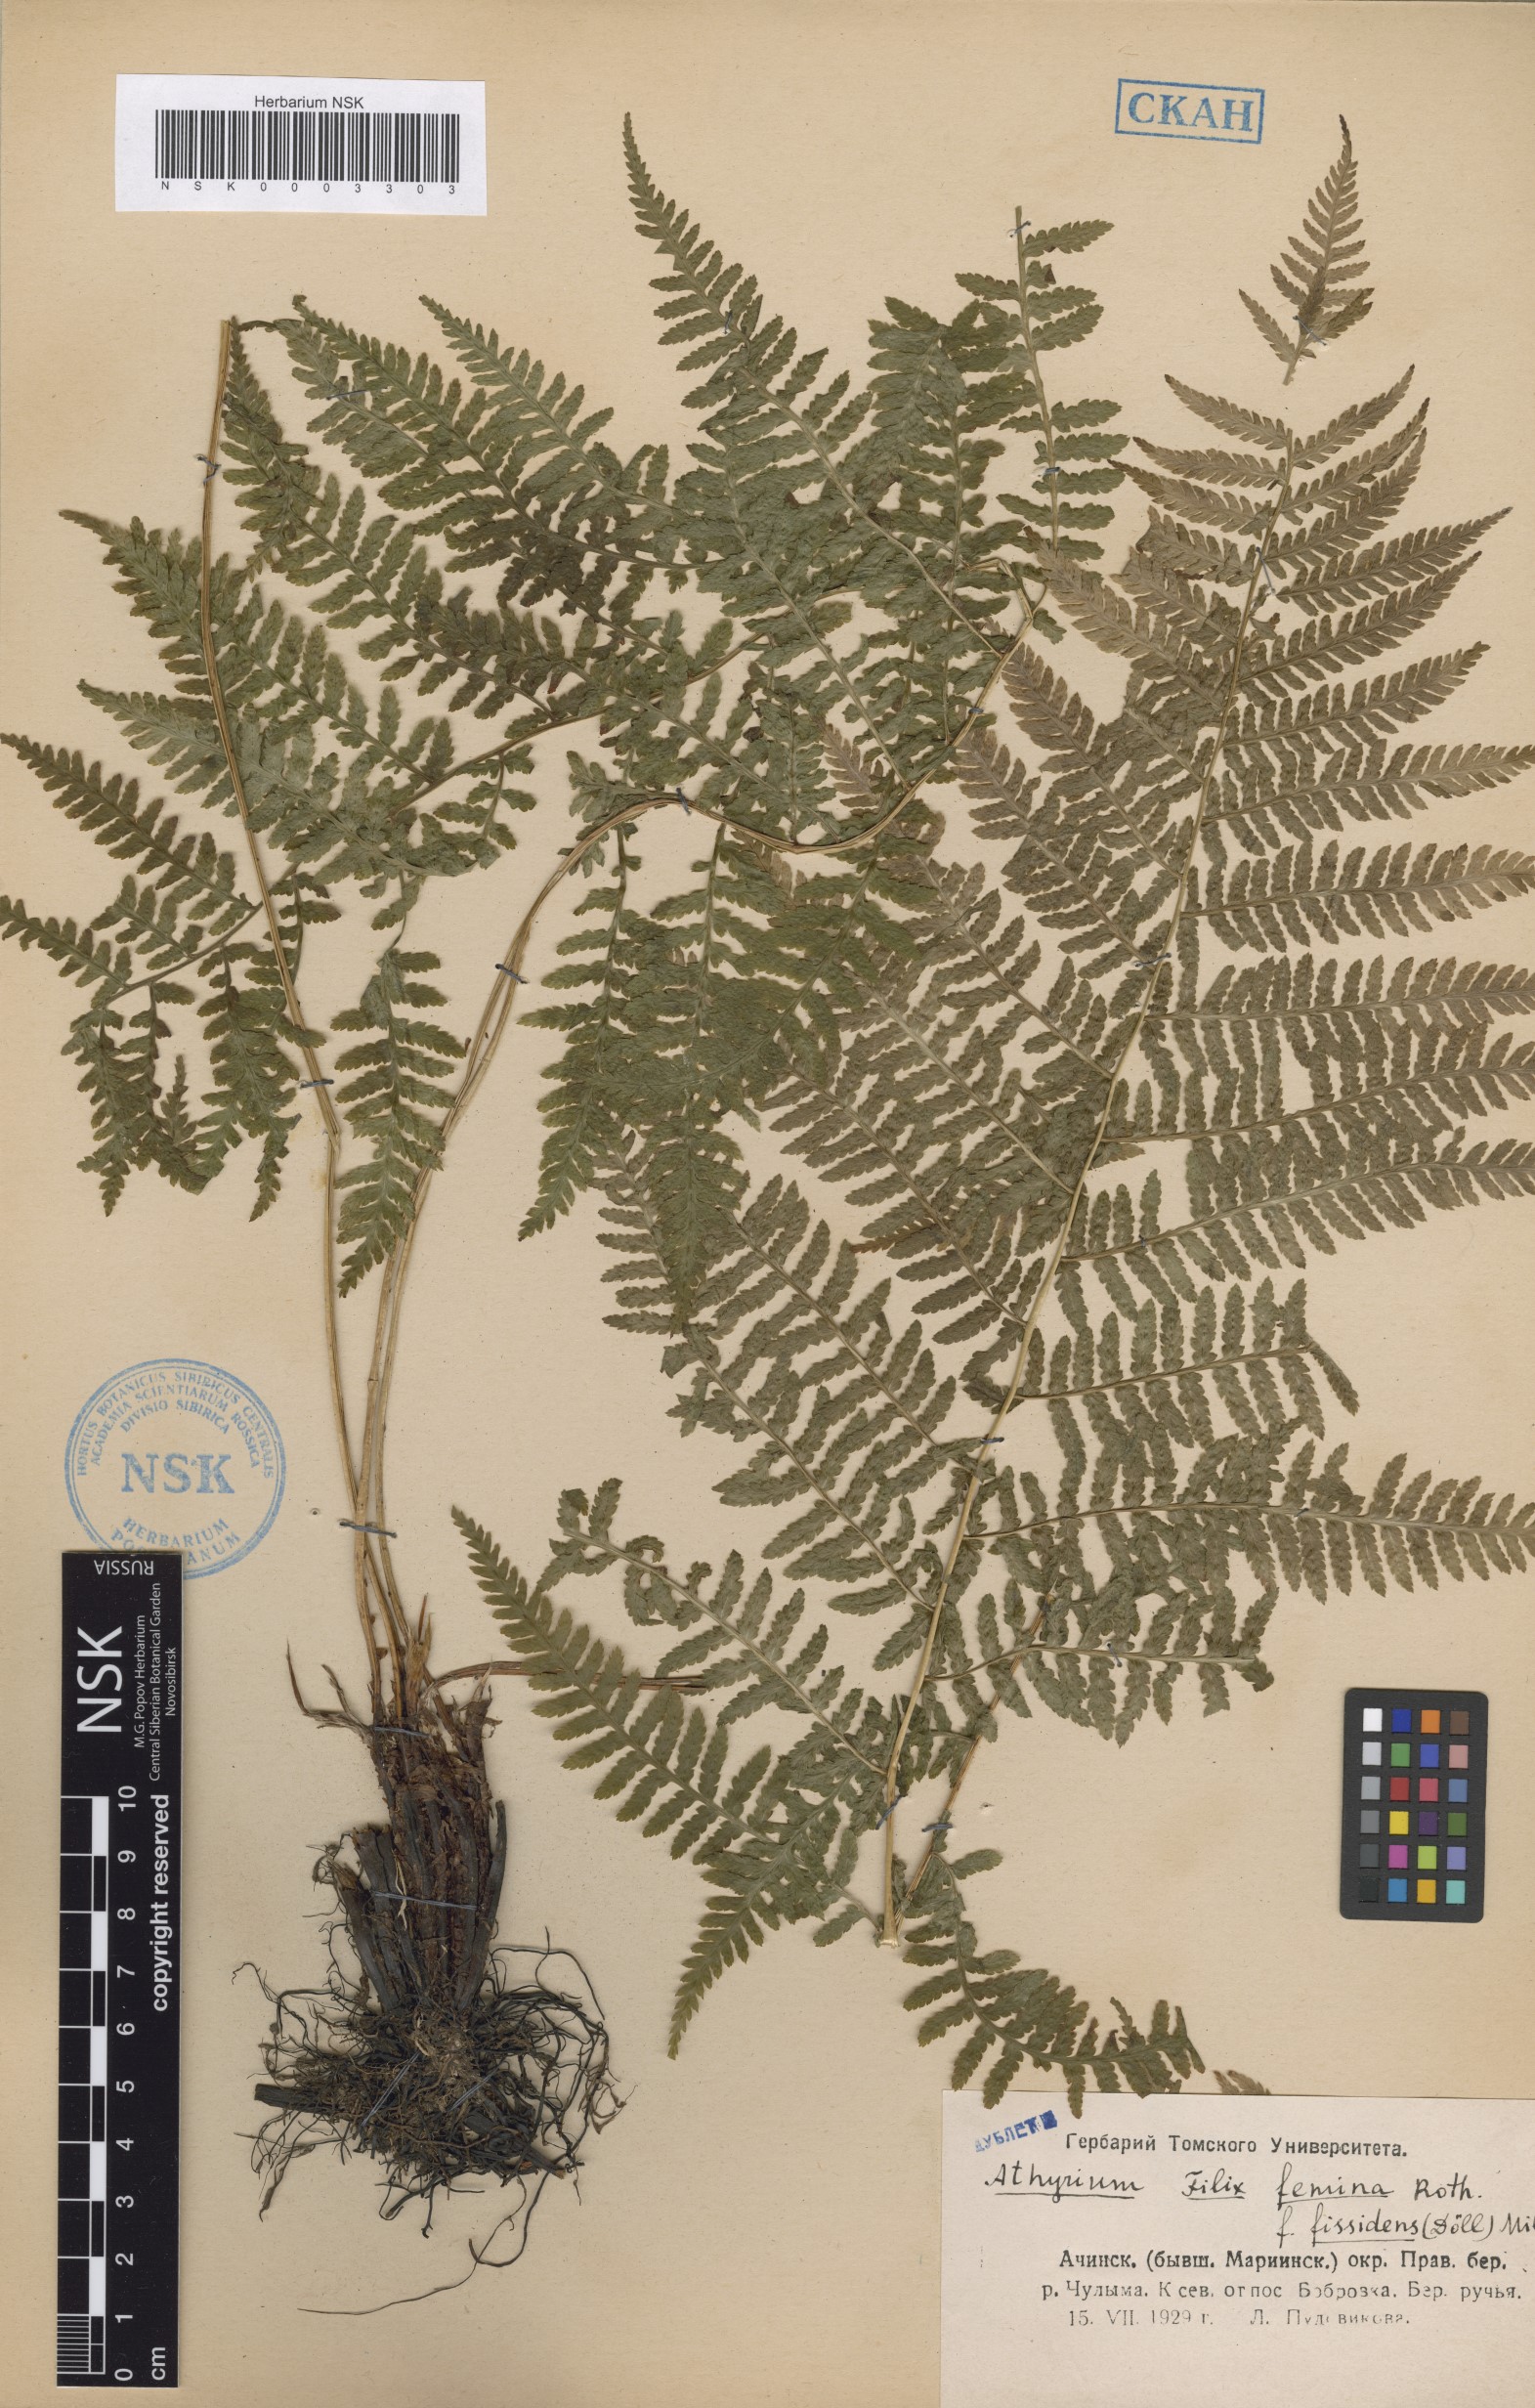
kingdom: Plantae
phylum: Tracheophyta
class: Polypodiopsida
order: Polypodiales
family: Athyriaceae
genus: Athyrium
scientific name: Athyrium filix-femina
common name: Lady fern
